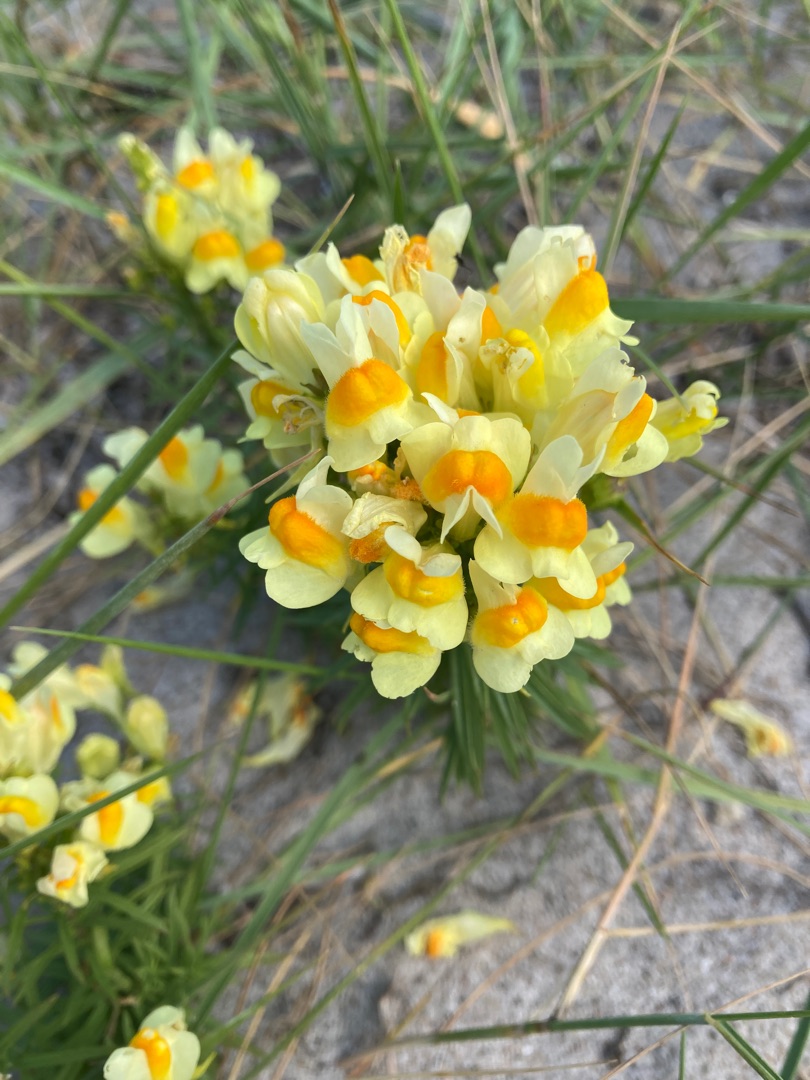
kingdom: Plantae
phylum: Tracheophyta
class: Magnoliopsida
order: Lamiales
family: Plantaginaceae
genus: Linaria
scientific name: Linaria vulgaris
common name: Almindelig torskemund
